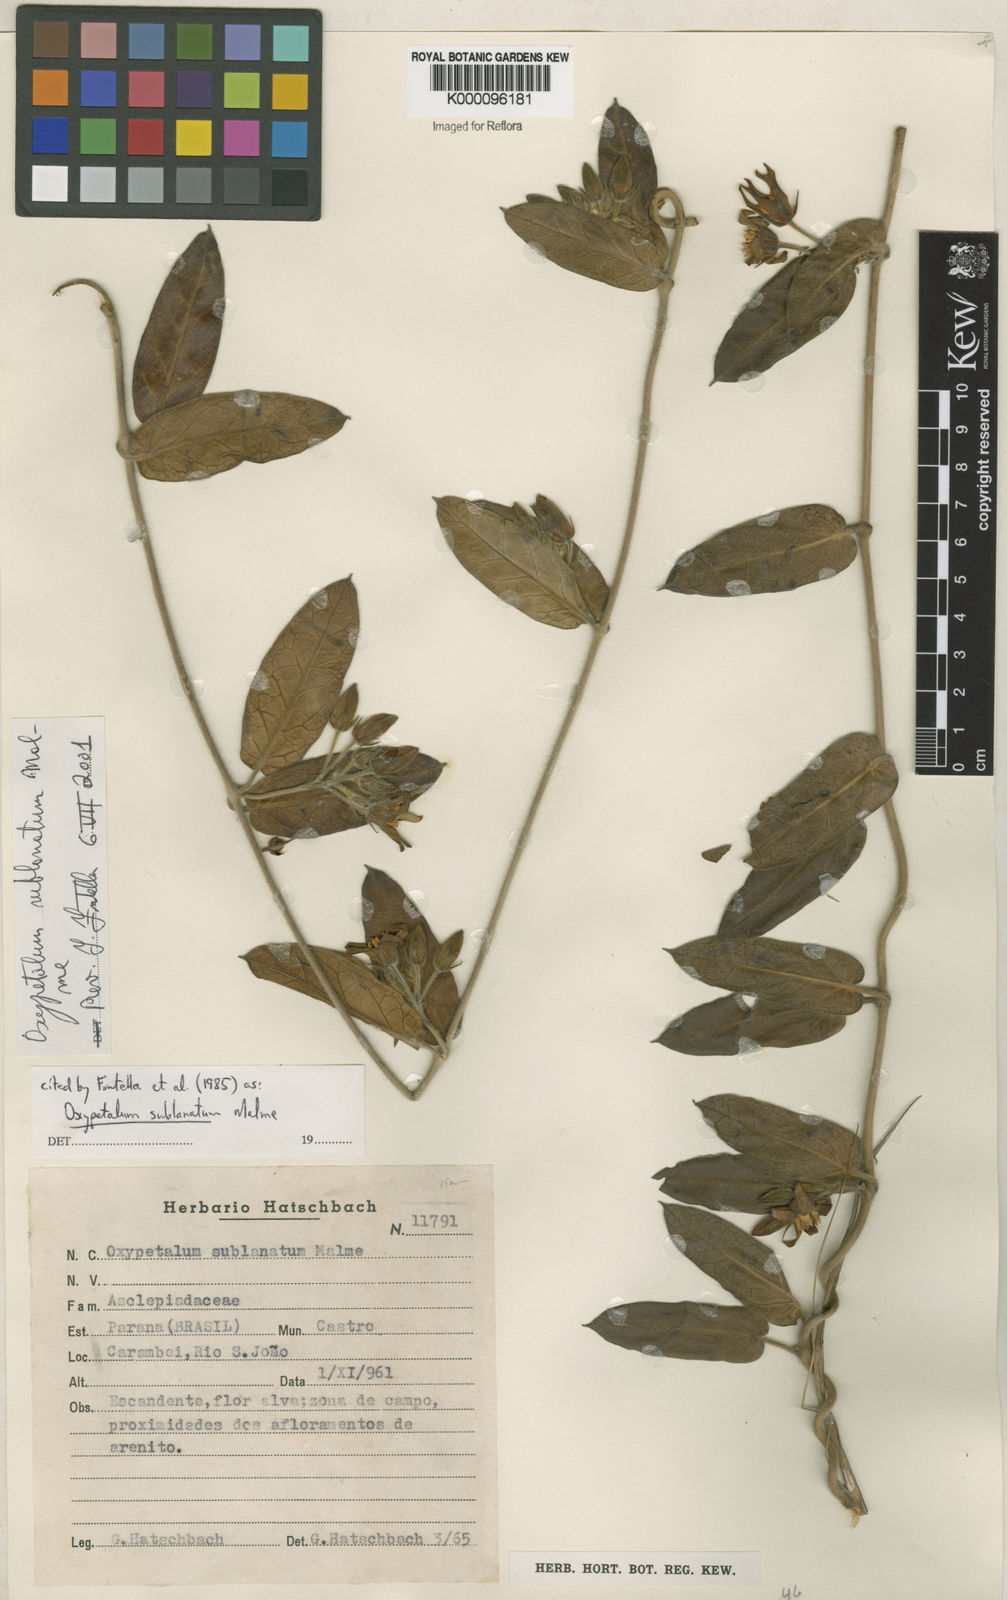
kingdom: Plantae
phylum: Tracheophyta
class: Magnoliopsida
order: Gentianales
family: Apocynaceae
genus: Oxypetalum
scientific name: Oxypetalum sublanatum
